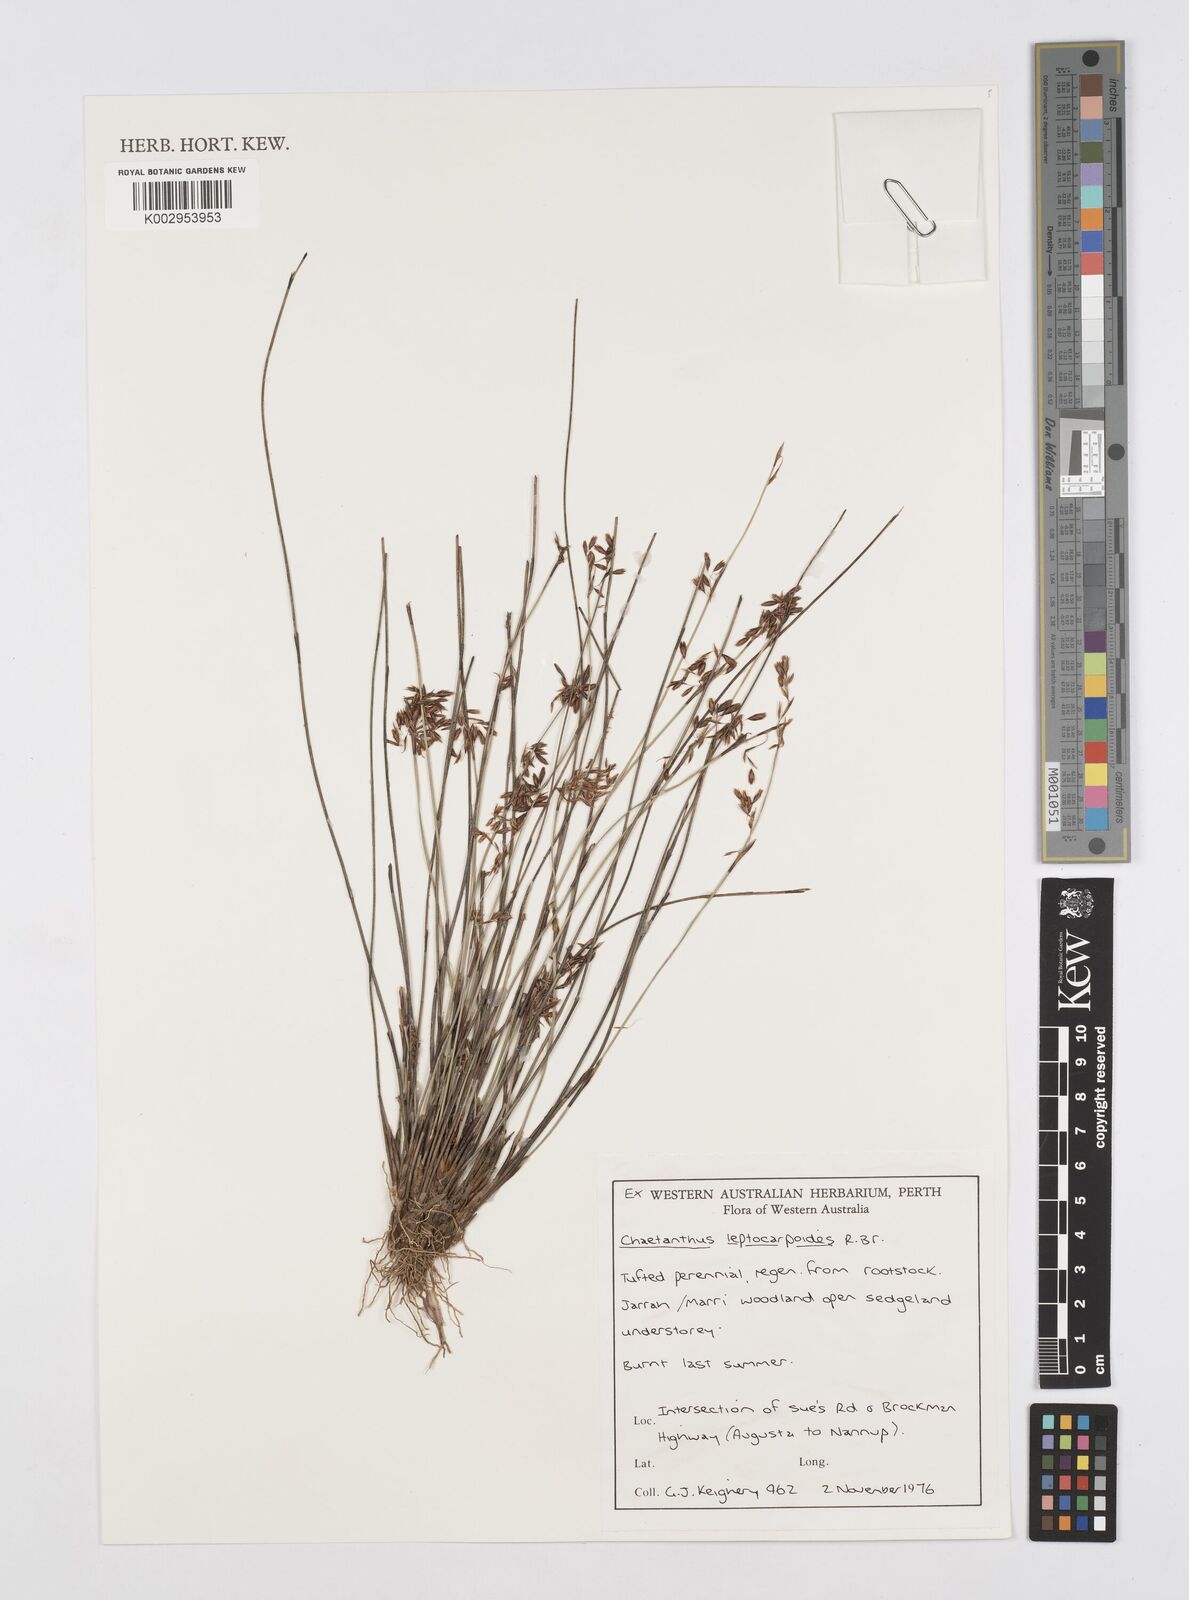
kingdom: Plantae
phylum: Tracheophyta
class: Liliopsida
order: Poales
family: Restionaceae
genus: Chaetanthus
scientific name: Chaetanthus leptocarpoides
